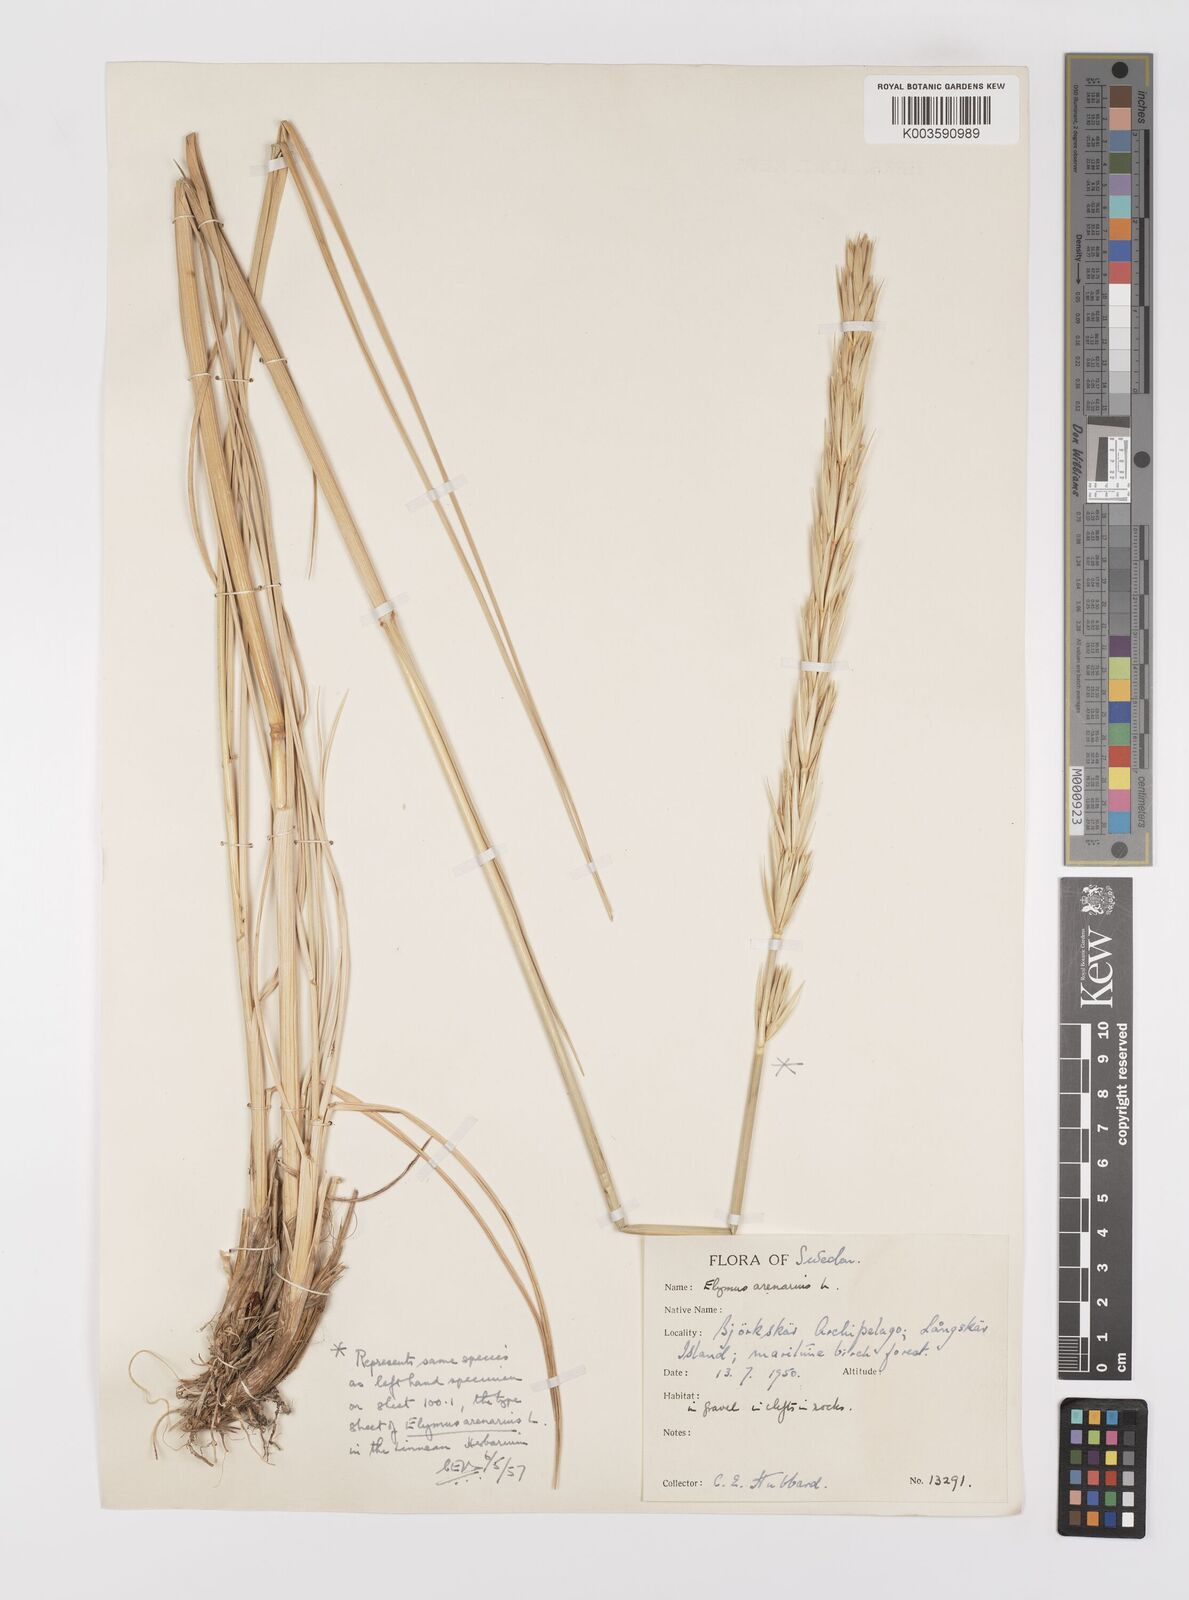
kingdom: Plantae
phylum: Tracheophyta
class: Liliopsida
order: Poales
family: Poaceae
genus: Leymus
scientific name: Leymus arenarius
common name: Lyme-grass
